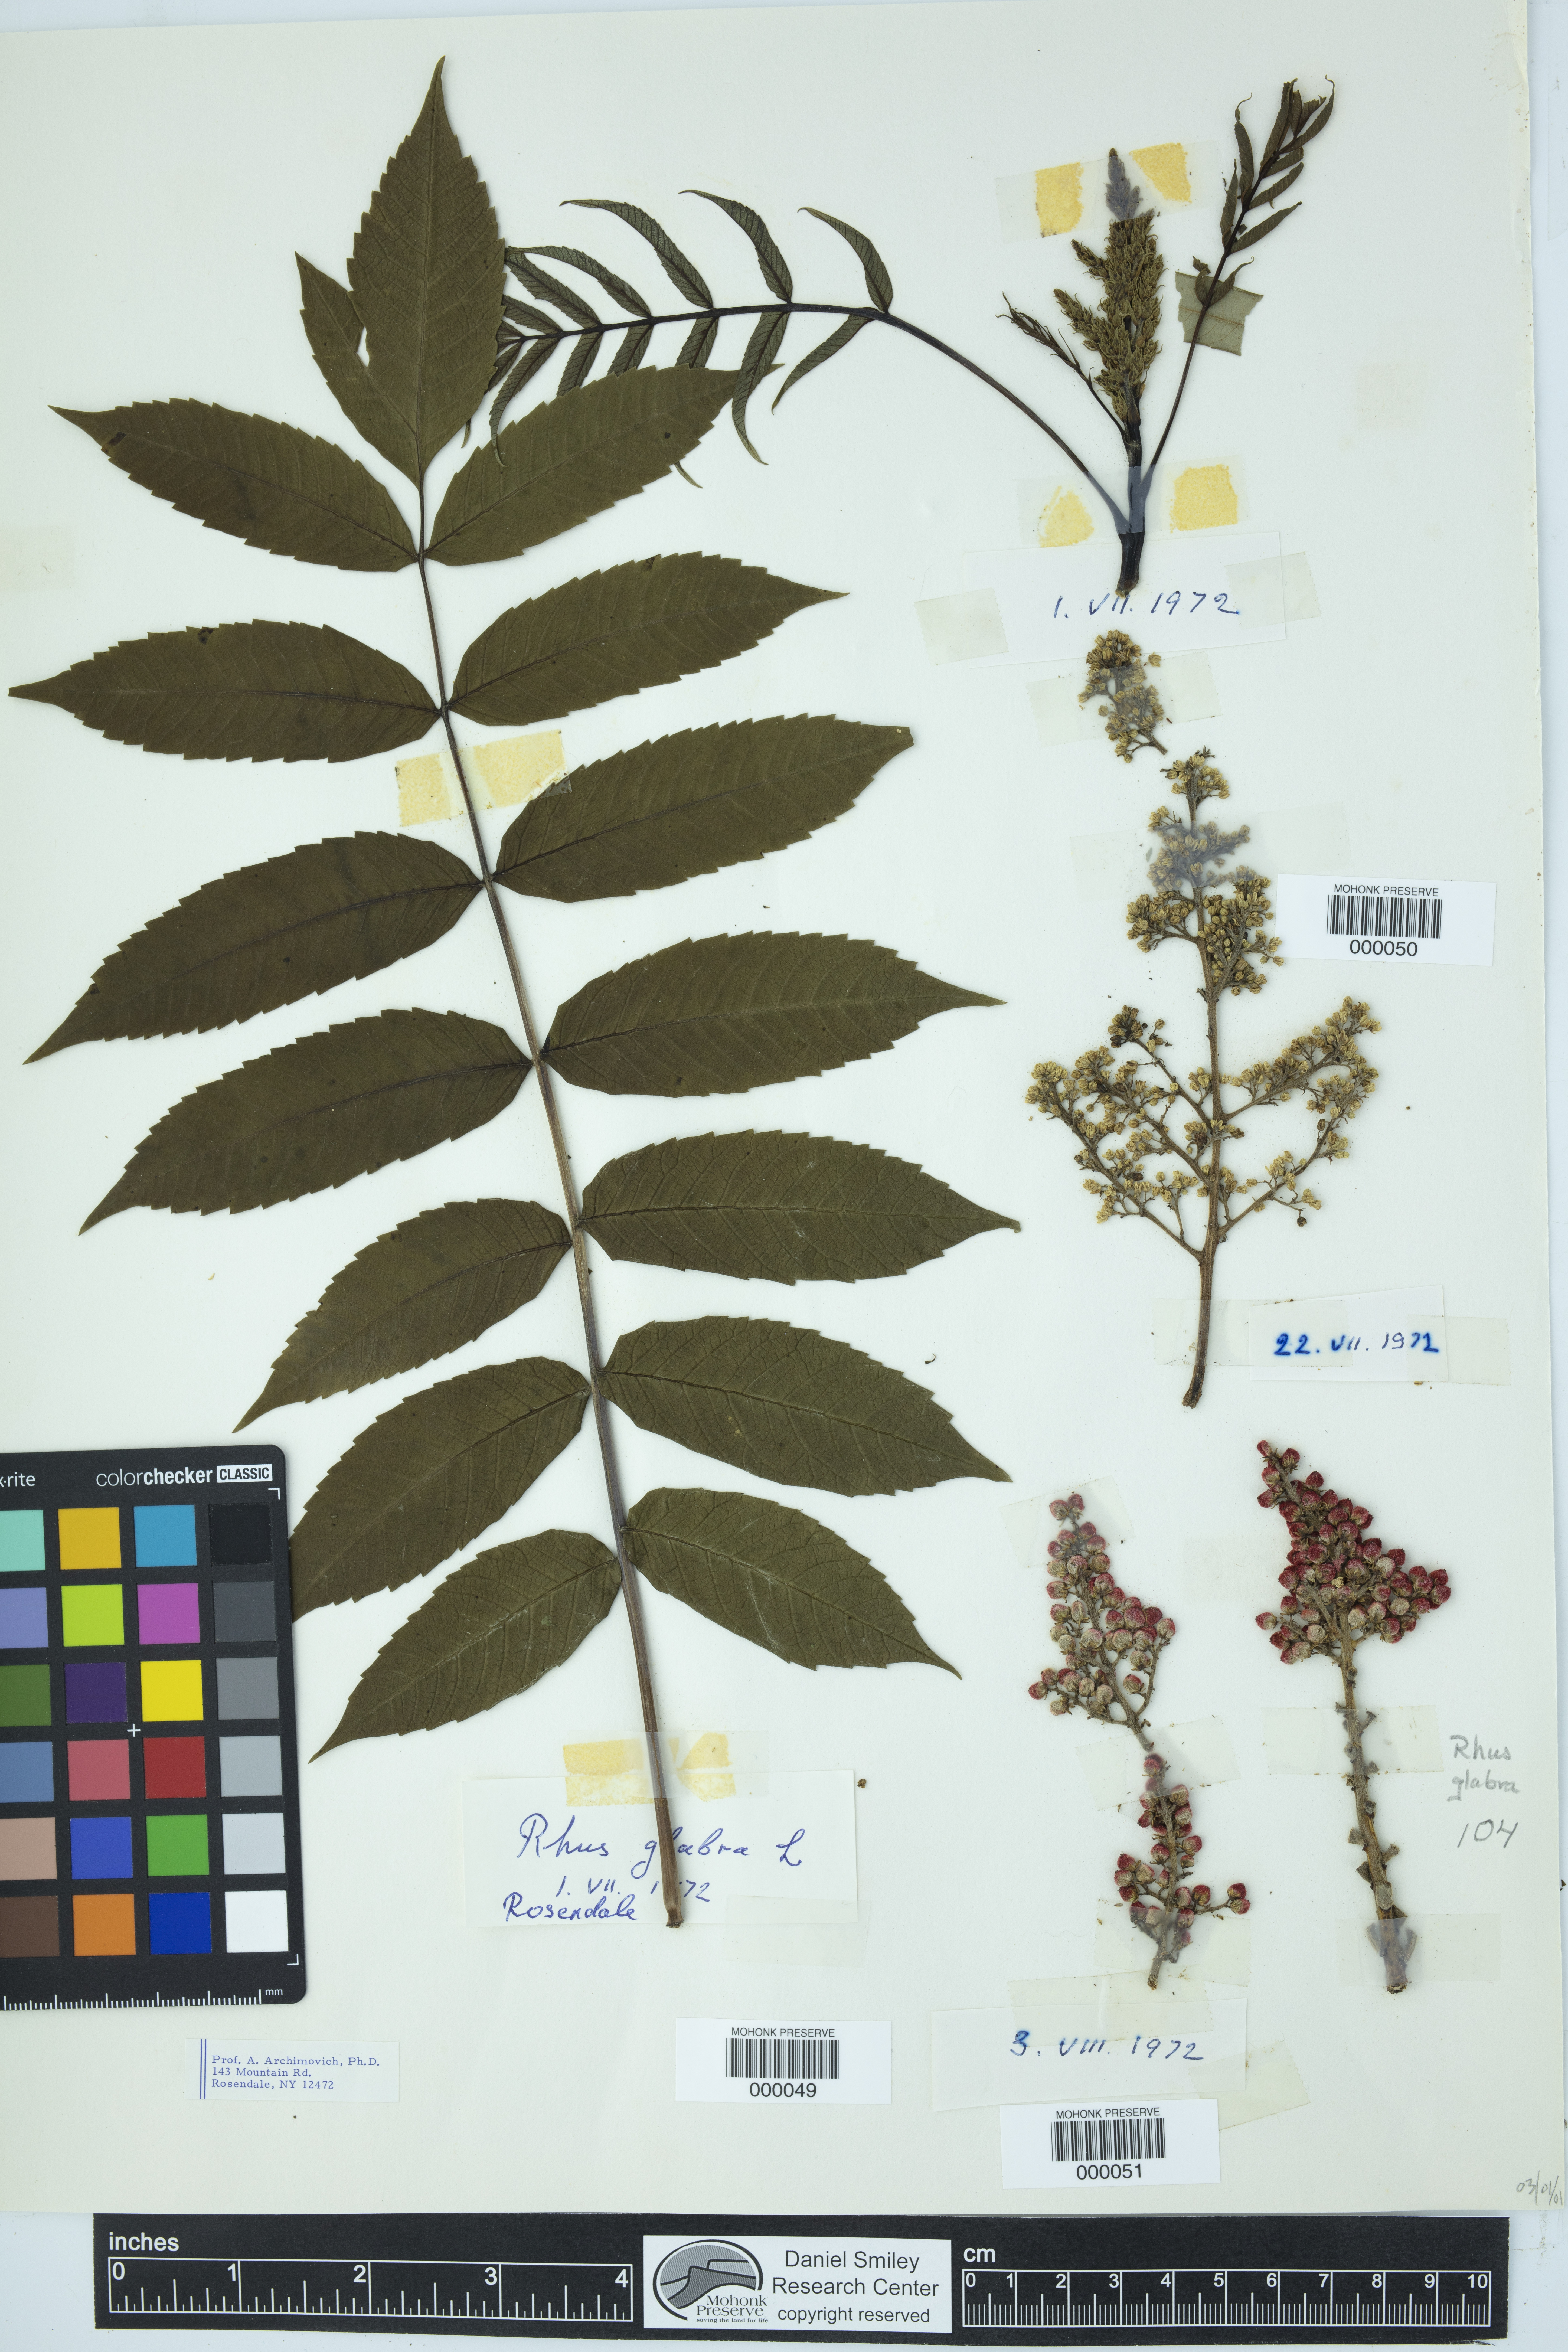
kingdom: Plantae
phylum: Tracheophyta
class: Magnoliopsida
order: Sapindales
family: Anacardiaceae
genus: Rhus
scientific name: Rhus glabra
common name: Scarlet sumac
